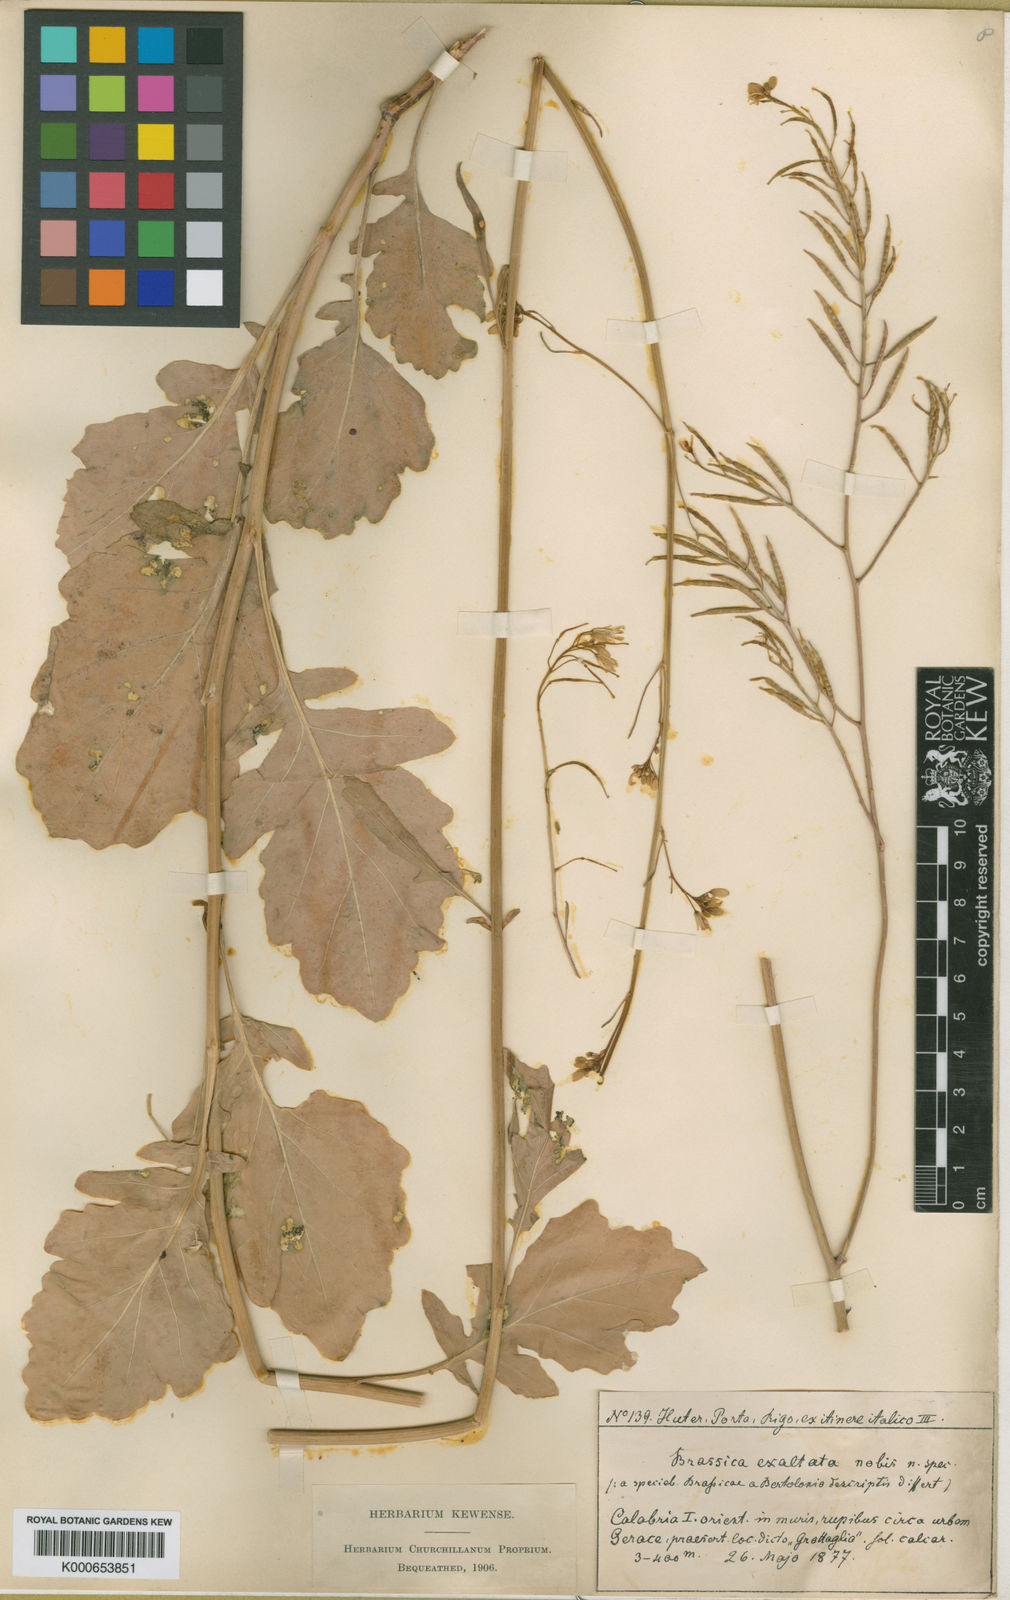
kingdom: Plantae
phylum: Tracheophyta
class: Magnoliopsida
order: Brassicales
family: Brassicaceae
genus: Erucastrum
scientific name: Erucastrum virgatum
